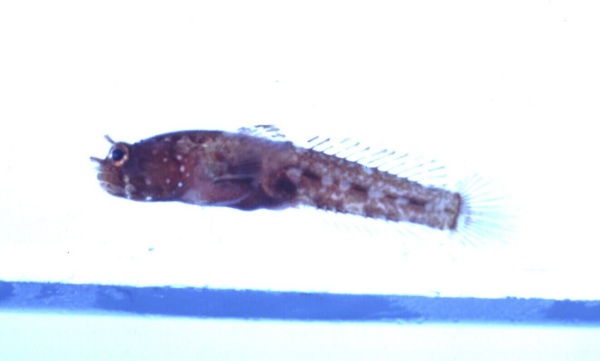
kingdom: Animalia
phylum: Chordata
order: Perciformes
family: Gobiidae
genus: Hetereleotris
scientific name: Hetereleotris tentaculata
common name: Locusthead
